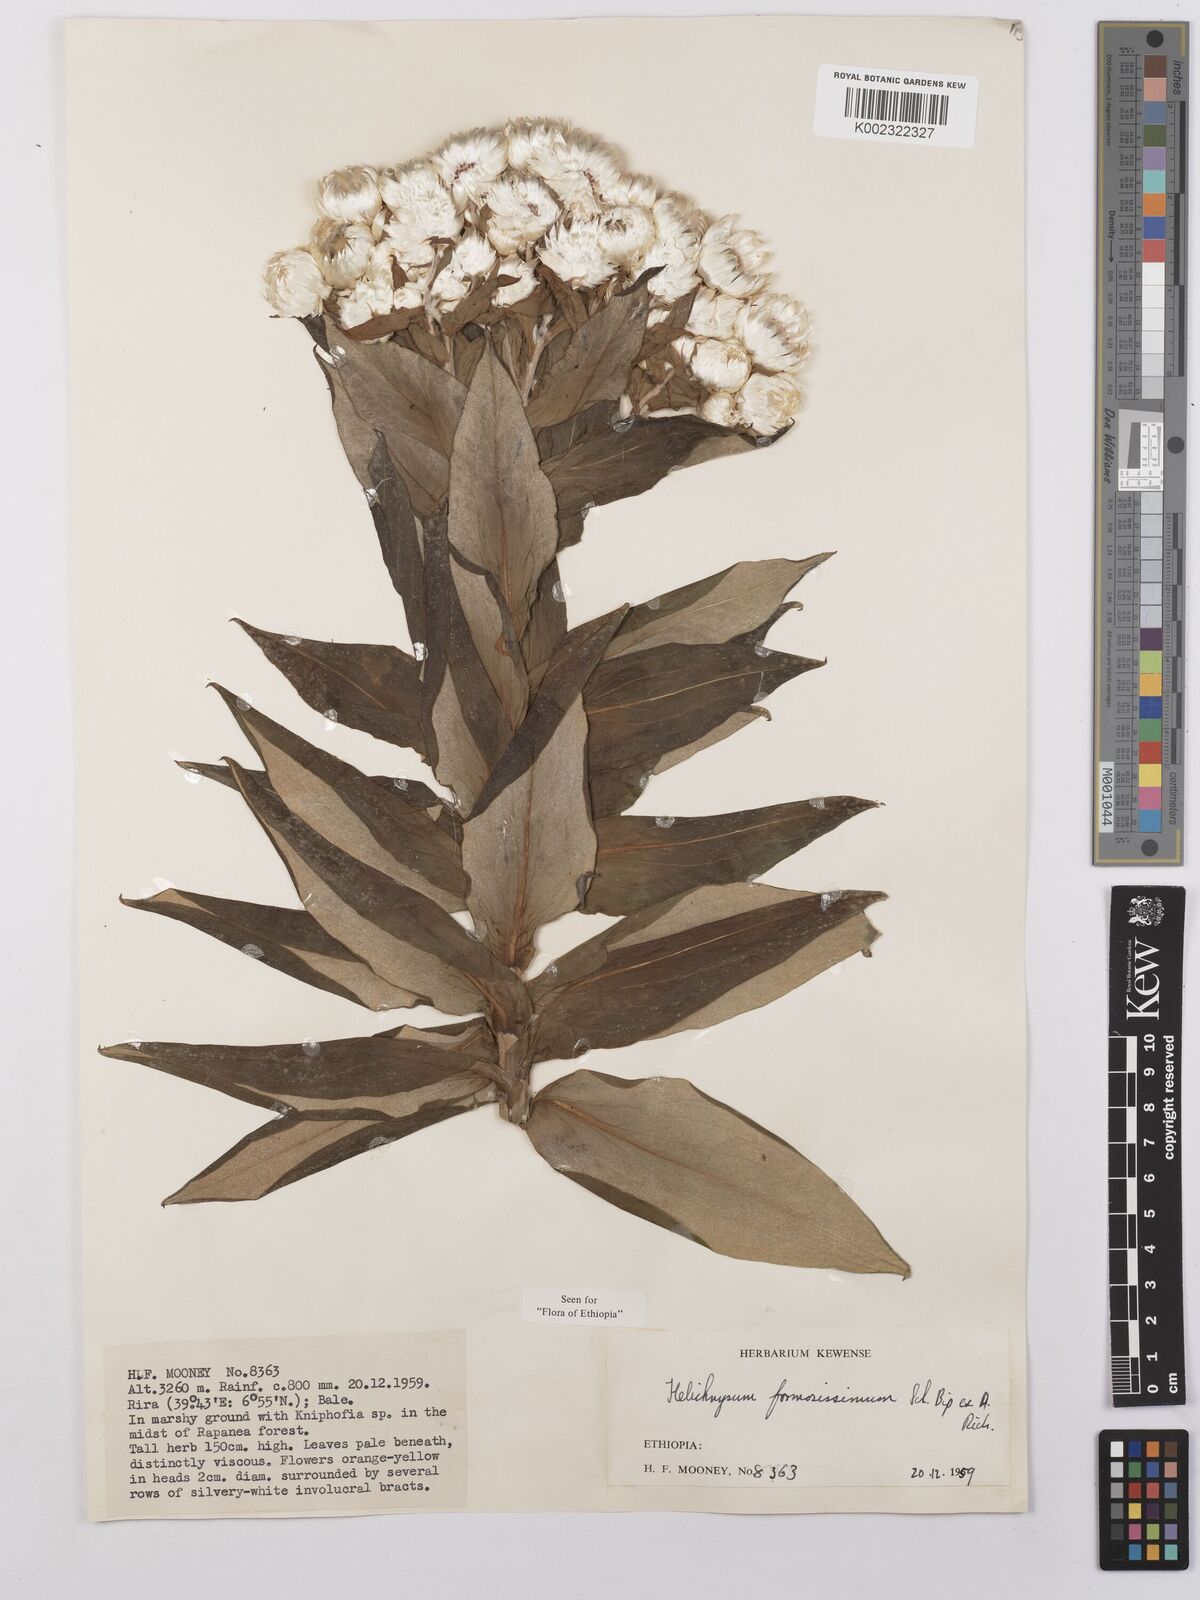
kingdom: Plantae
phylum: Tracheophyta
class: Magnoliopsida
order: Asterales
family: Asteraceae
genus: Helichrysum
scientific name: Helichrysum formosissimum
